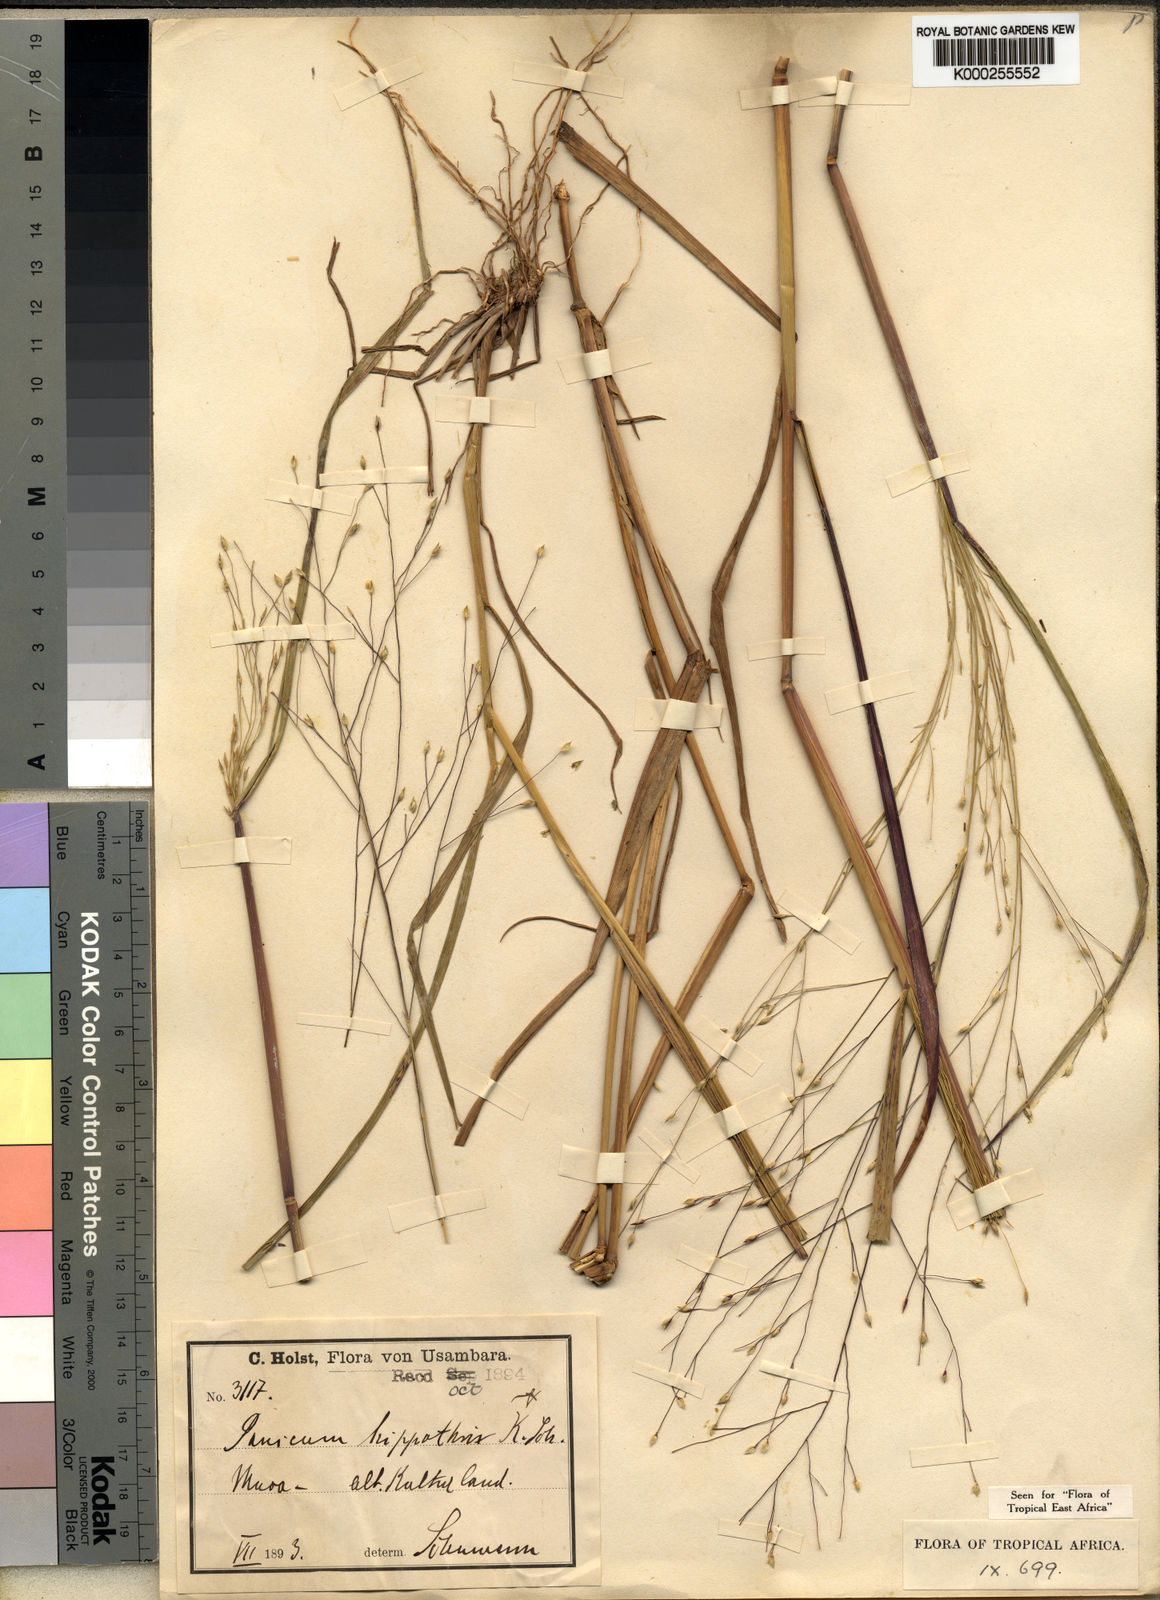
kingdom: Plantae
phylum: Tracheophyta
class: Liliopsida
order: Poales
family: Poaceae
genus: Panicum
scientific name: Panicum
